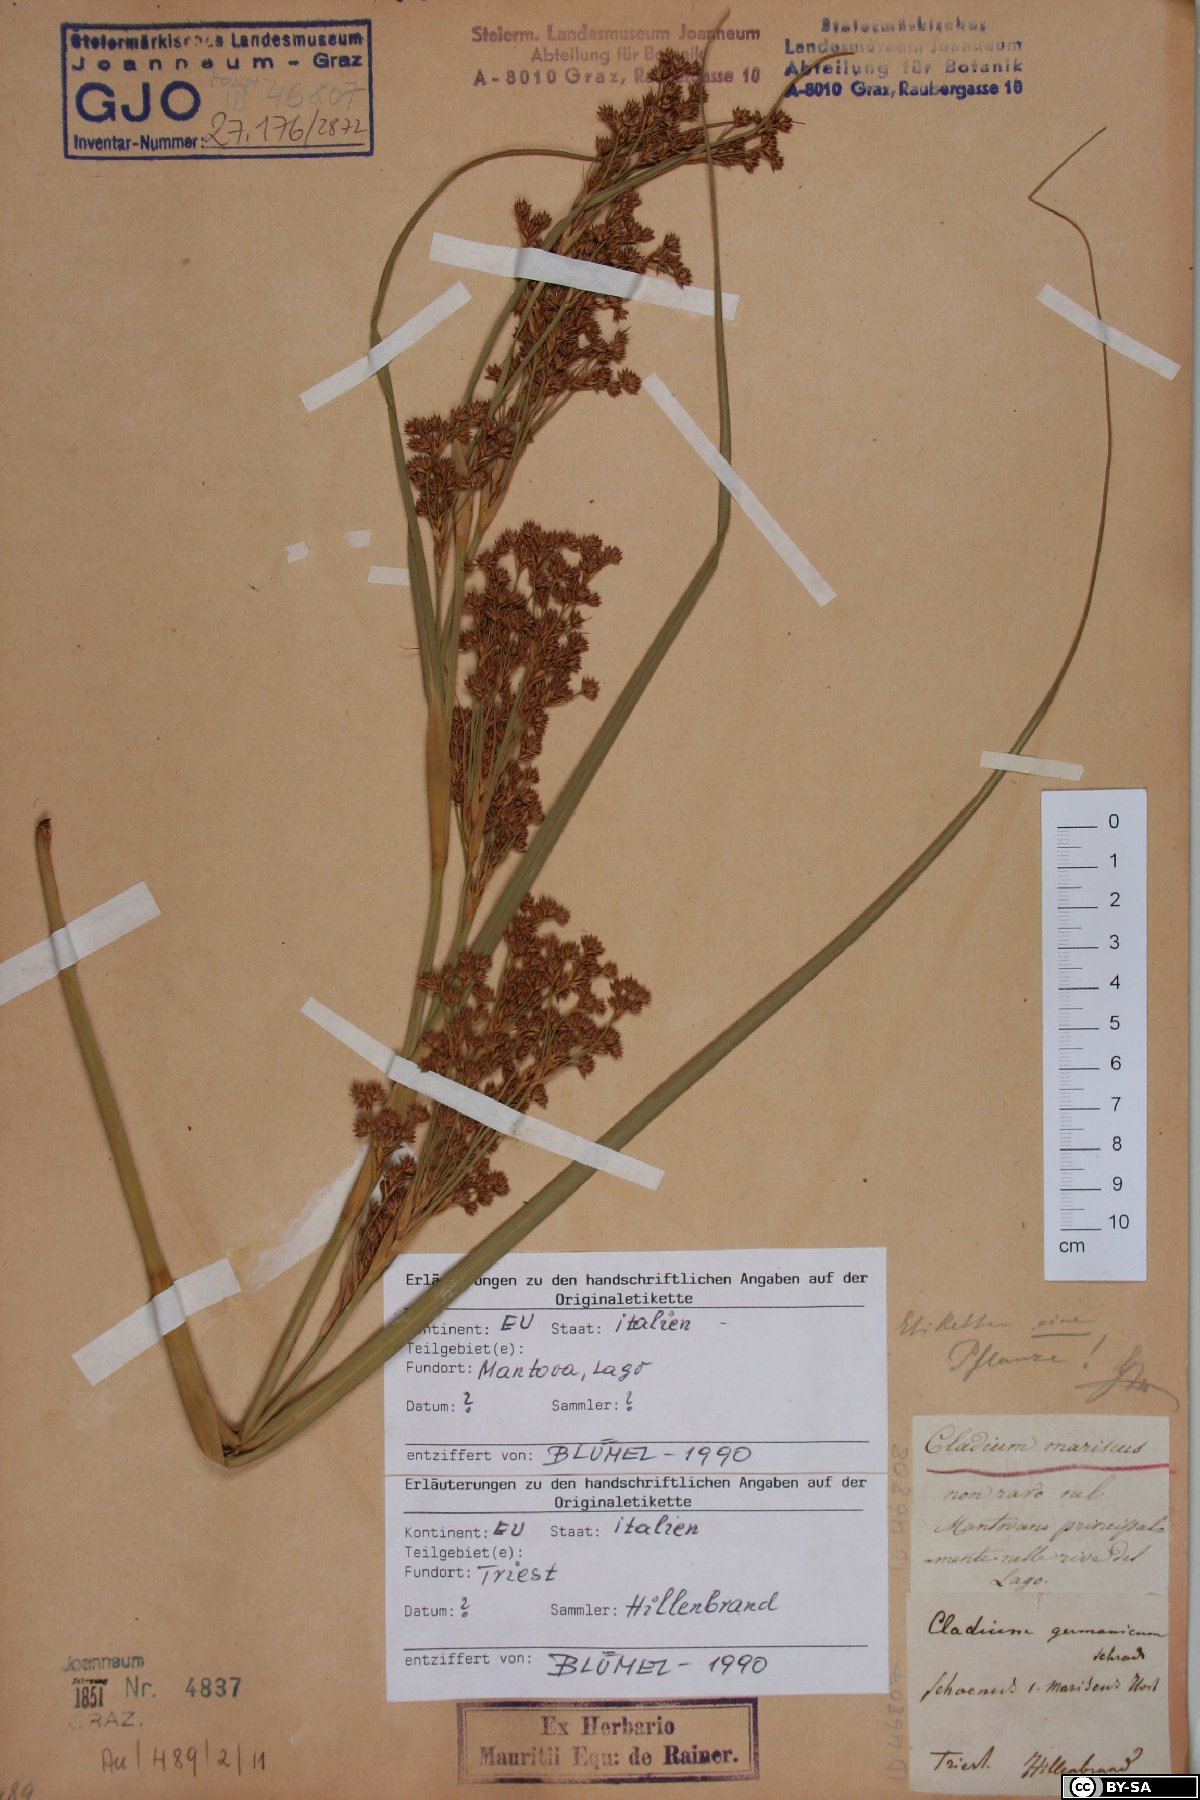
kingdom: Plantae
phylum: Tracheophyta
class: Liliopsida
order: Poales
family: Cyperaceae
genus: Cladium
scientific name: Cladium mariscus
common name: Great fen-sedge
